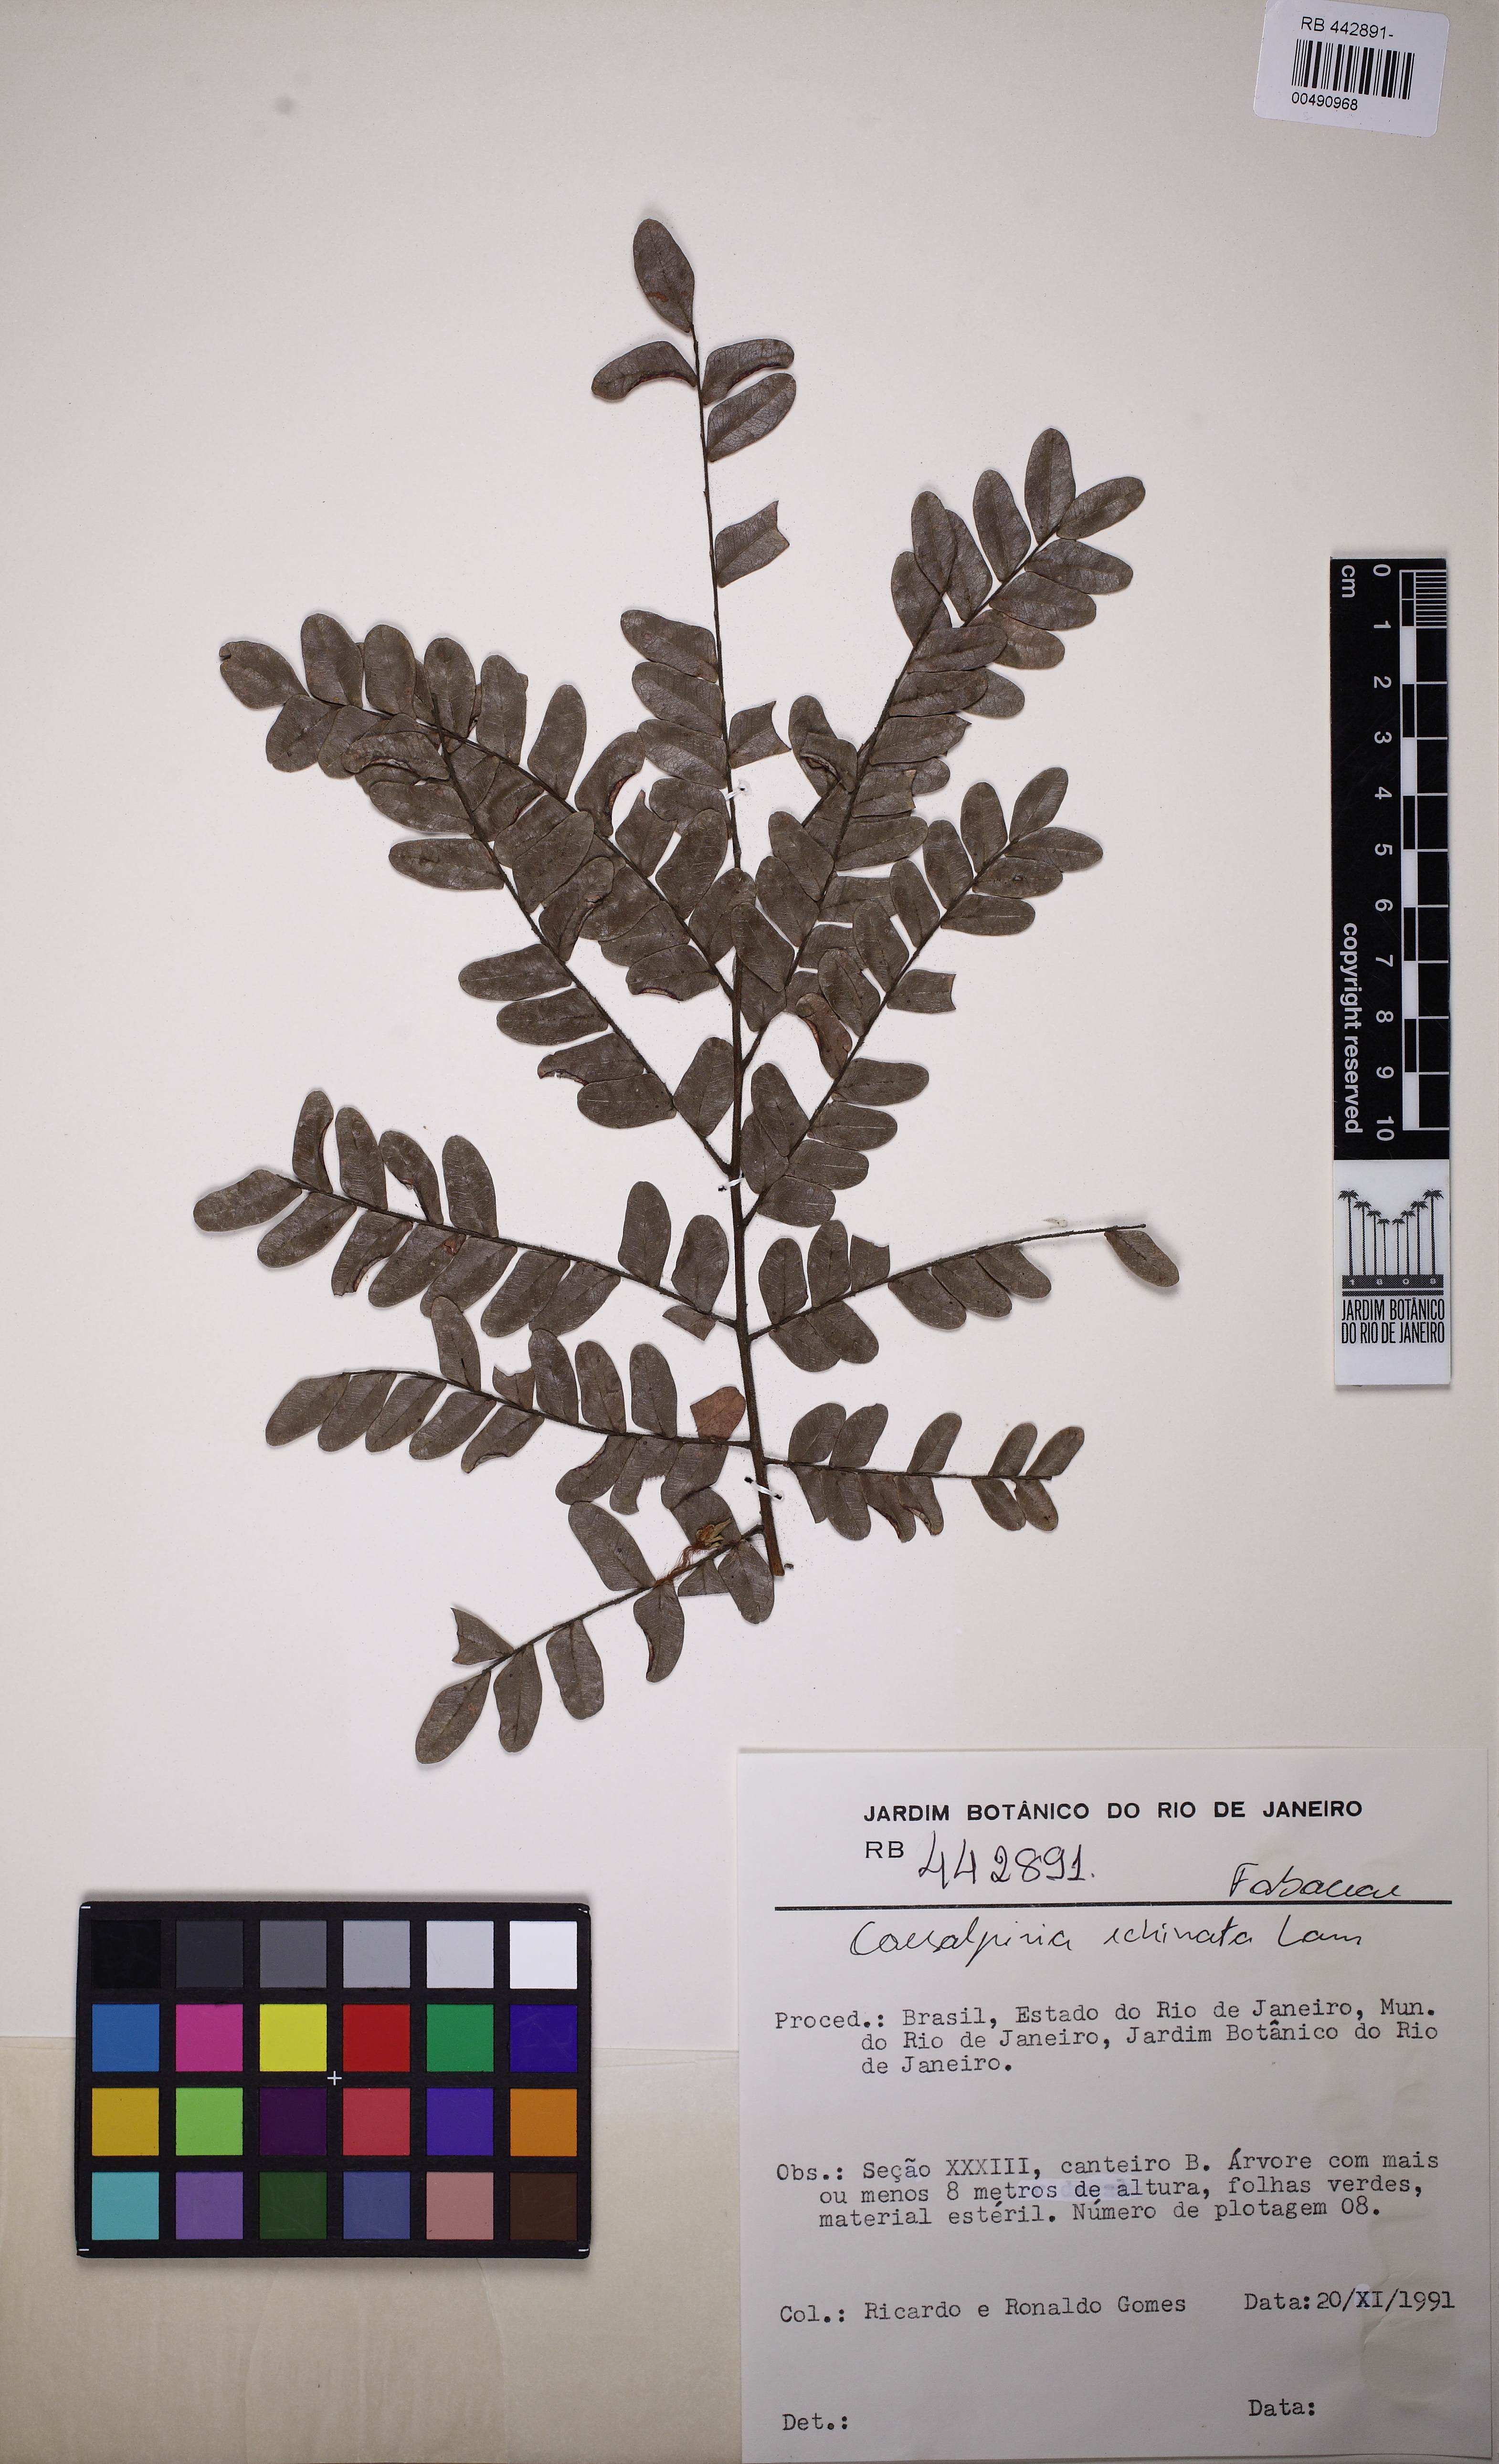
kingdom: Plantae
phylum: Tracheophyta
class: Magnoliopsida
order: Fabales
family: Fabaceae
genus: Paubrasilia
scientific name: Paubrasilia echinata
